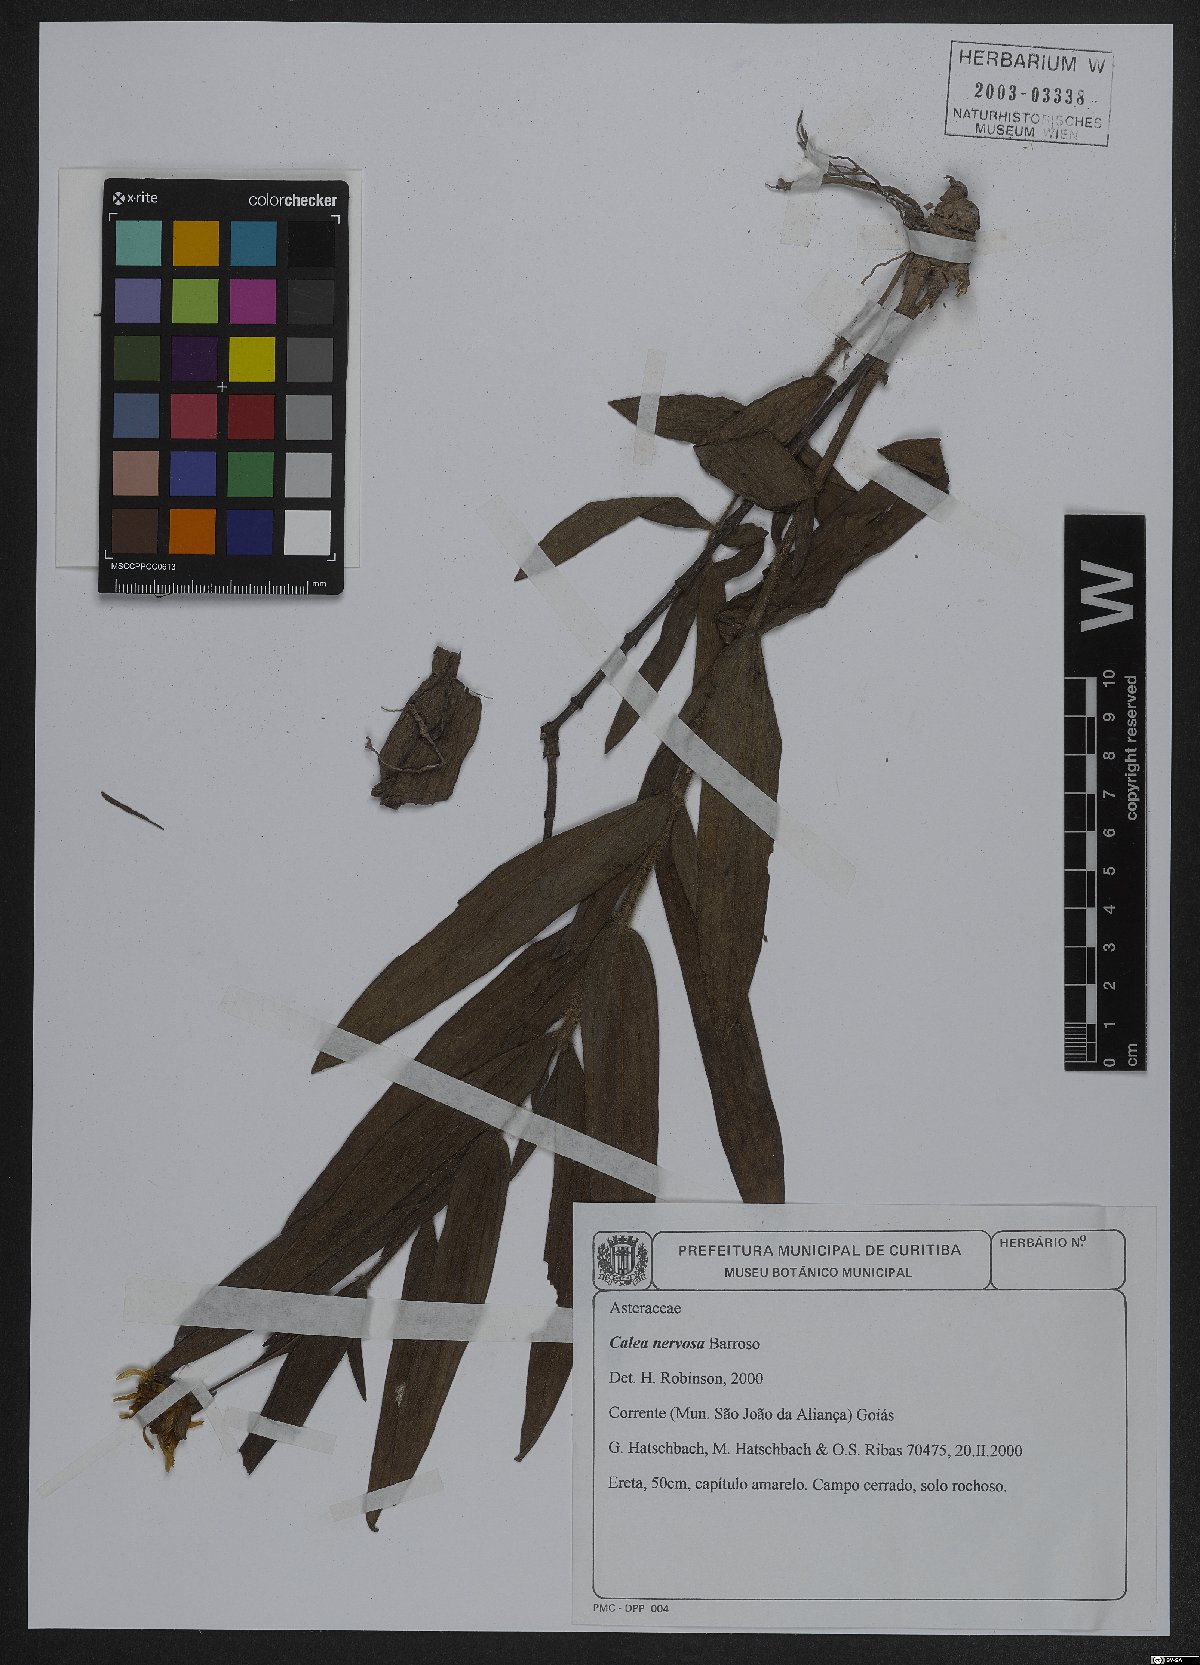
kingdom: Plantae
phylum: Tracheophyta
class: Magnoliopsida
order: Asterales
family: Asteraceae
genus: Calea
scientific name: Calea nervosa
